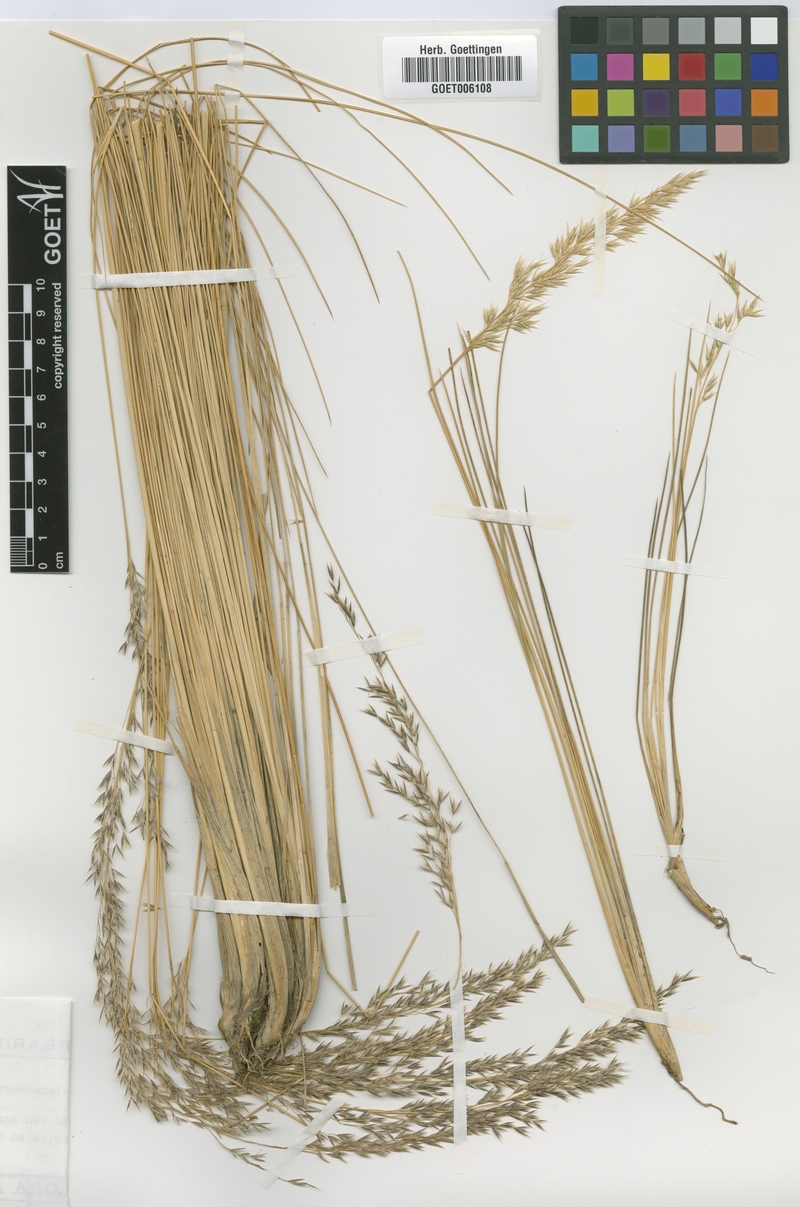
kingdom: Plantae
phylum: Tracheophyta
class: Liliopsida
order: Poales
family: Poaceae
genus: Cinnagrostis
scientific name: Cinnagrostis rigida
